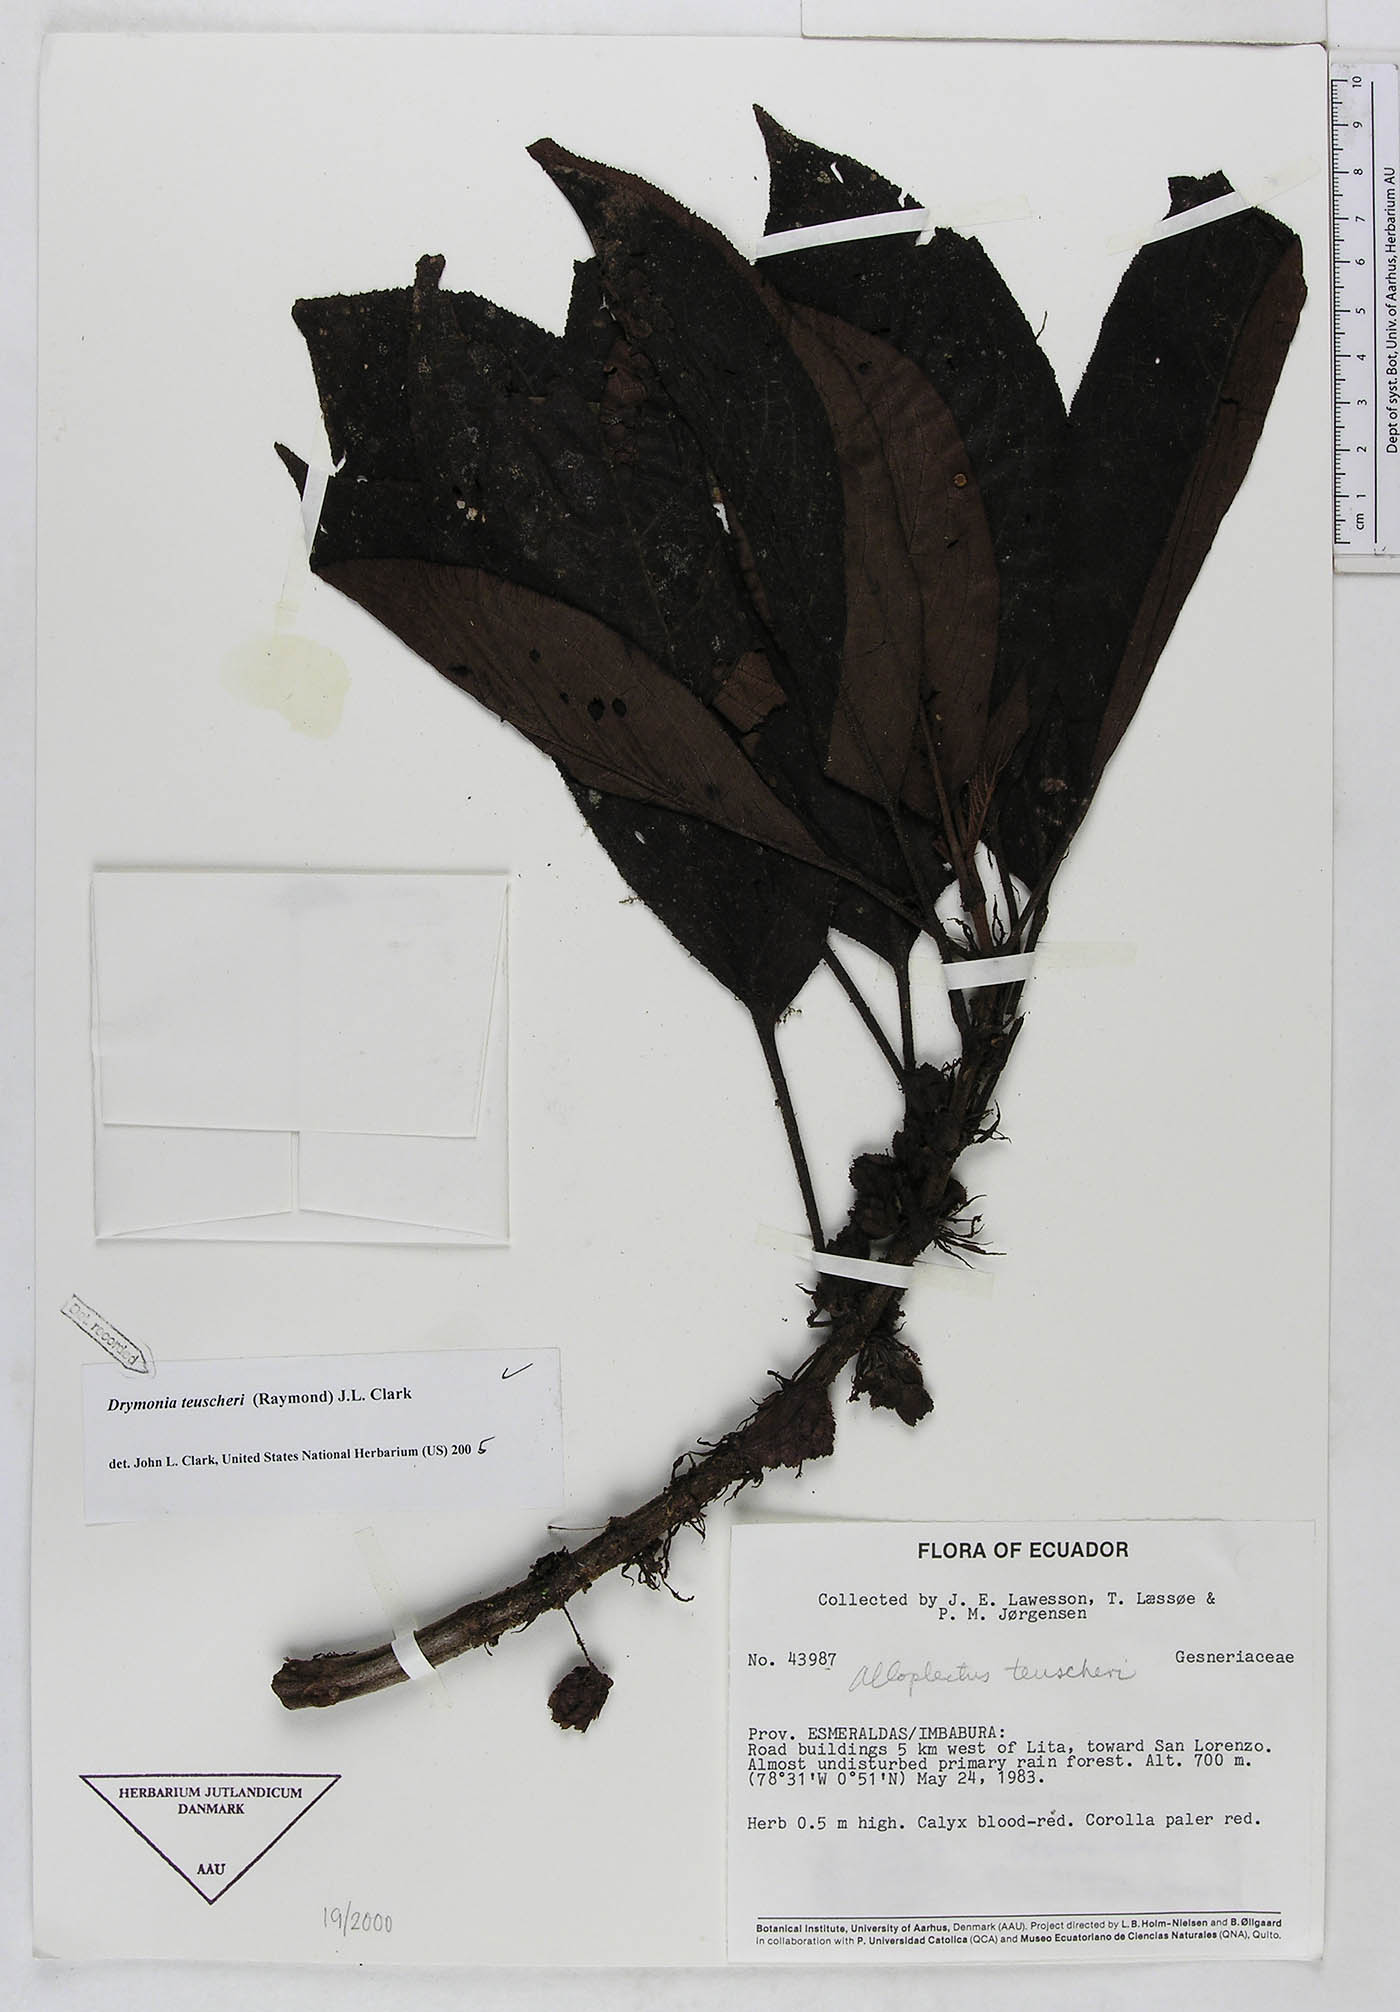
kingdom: Plantae
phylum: Tracheophyta
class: Magnoliopsida
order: Lamiales
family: Gesneriaceae
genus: Drymonia
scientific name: Drymonia teuscheri
